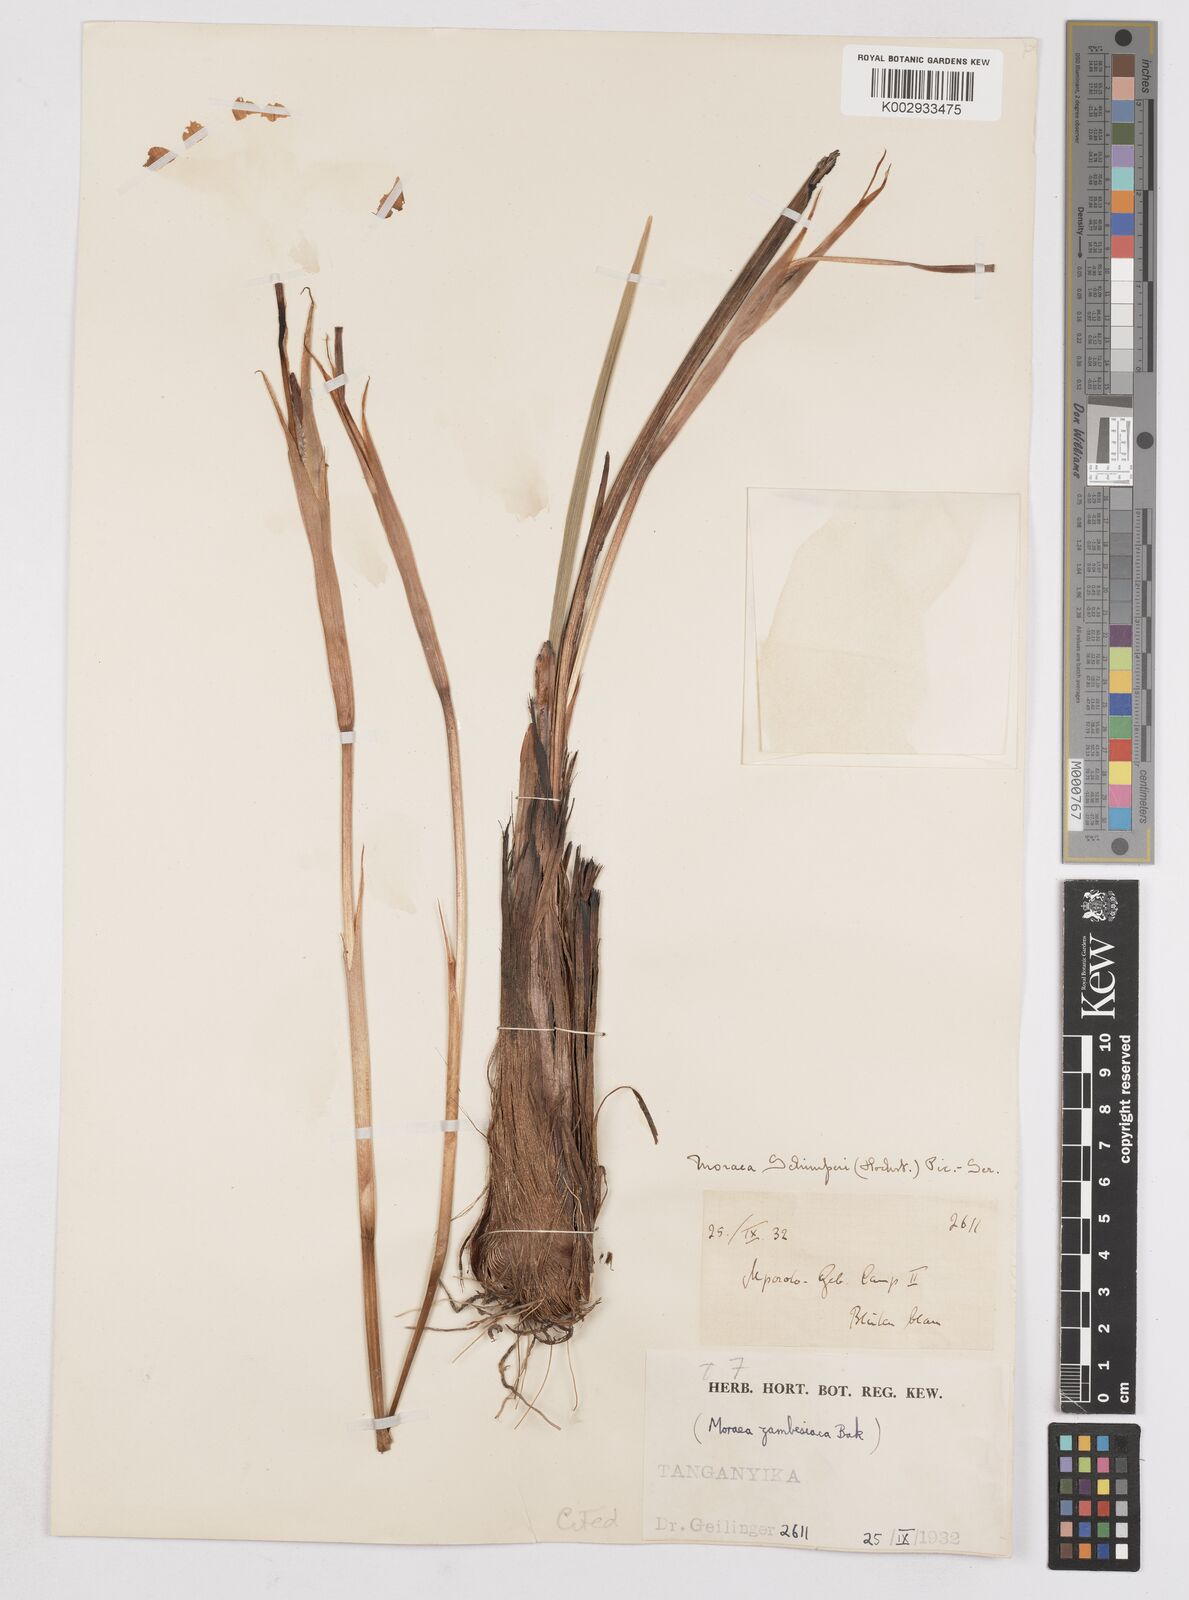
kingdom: Plantae
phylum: Tracheophyta
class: Liliopsida
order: Asparagales
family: Iridaceae
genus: Moraea
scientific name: Moraea schimperi
